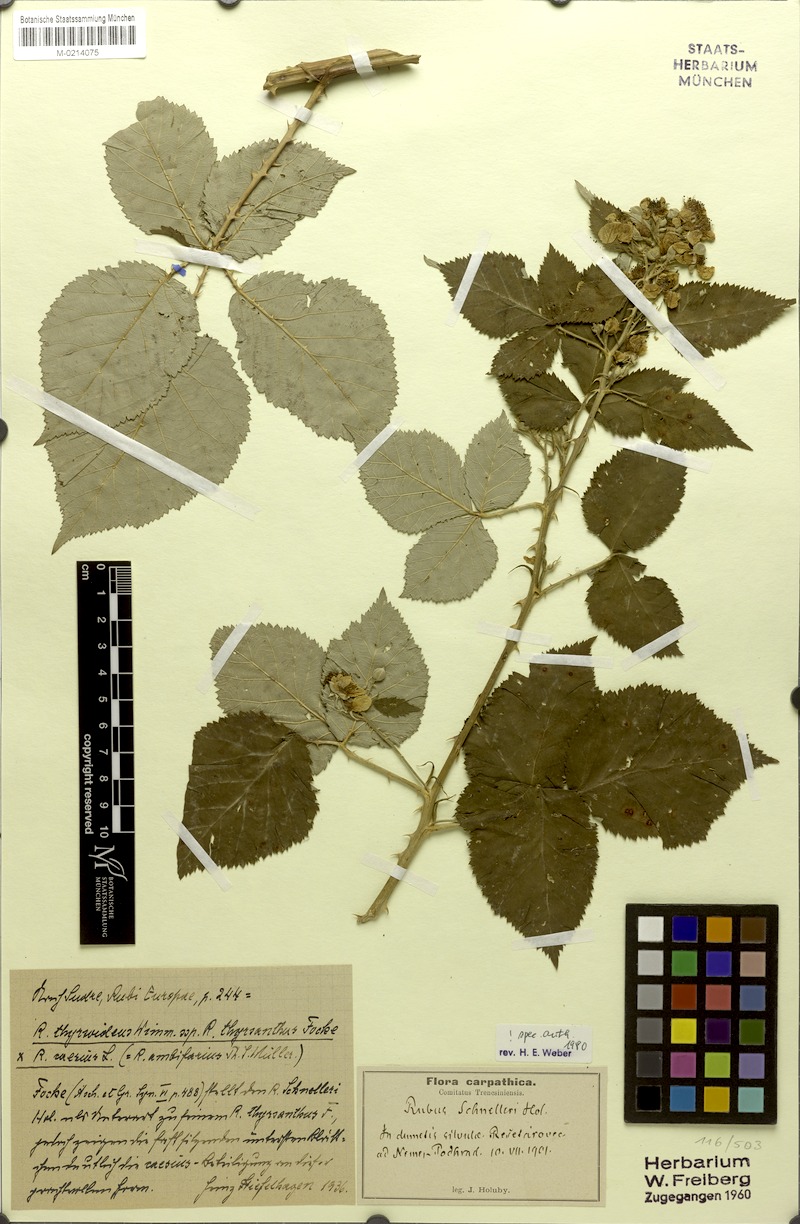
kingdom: Plantae
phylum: Tracheophyta
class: Magnoliopsida
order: Rosales
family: Rosaceae
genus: Rubus
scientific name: Rubus schnelleri
